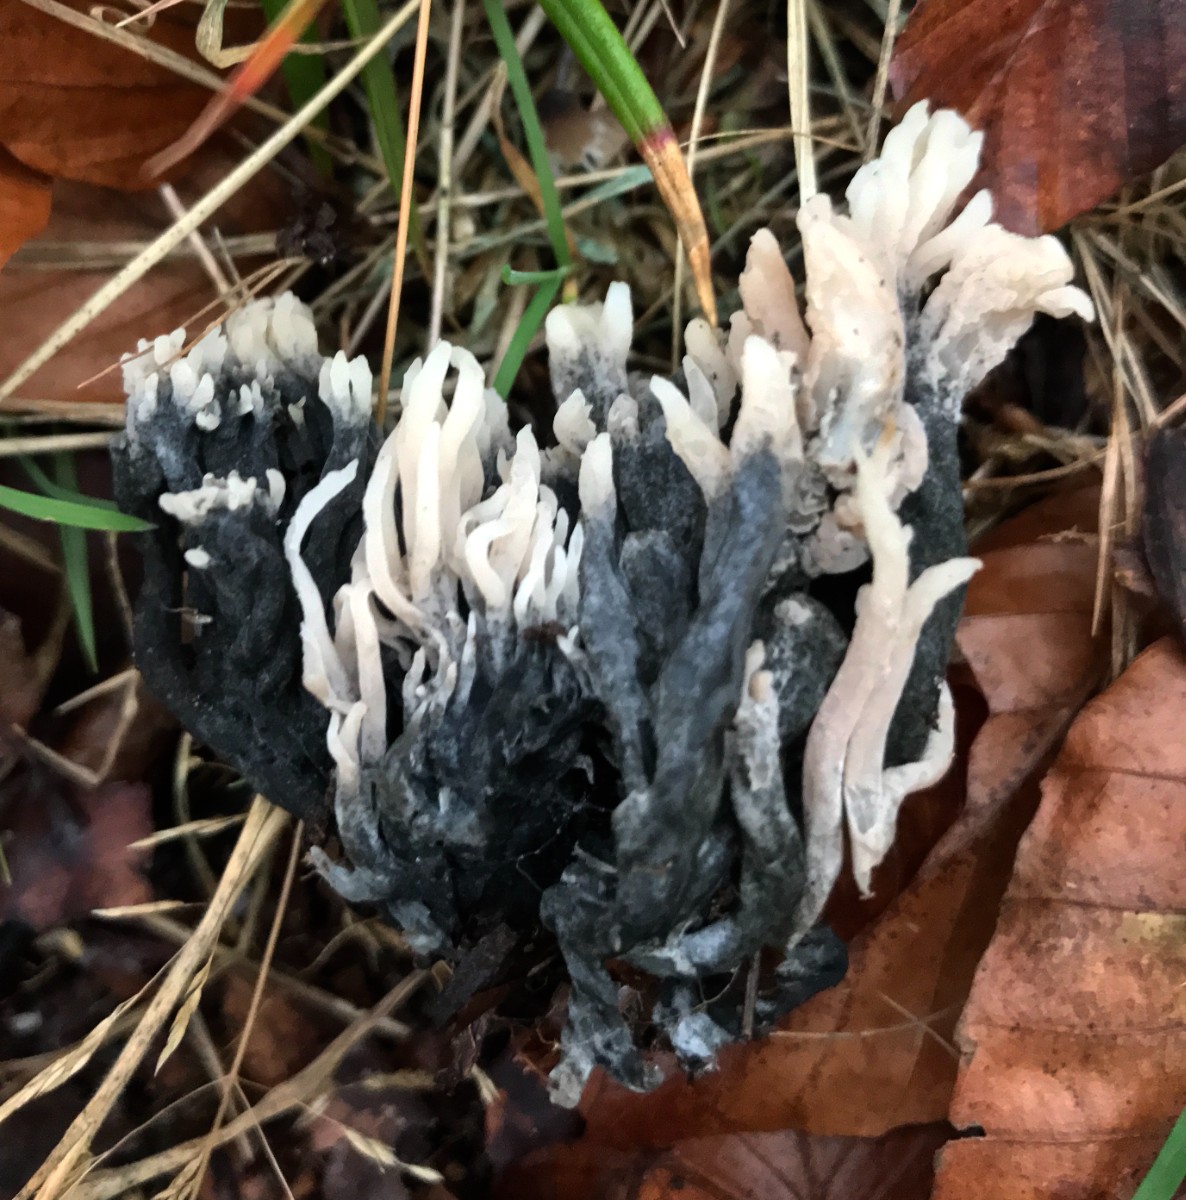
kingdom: Fungi
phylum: Ascomycota
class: Sordariomycetes
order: Sordariales
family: Helminthosphaeriaceae
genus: Helminthosphaeria
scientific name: Helminthosphaeria clavariarum
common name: trold-svampesnyltekerne
